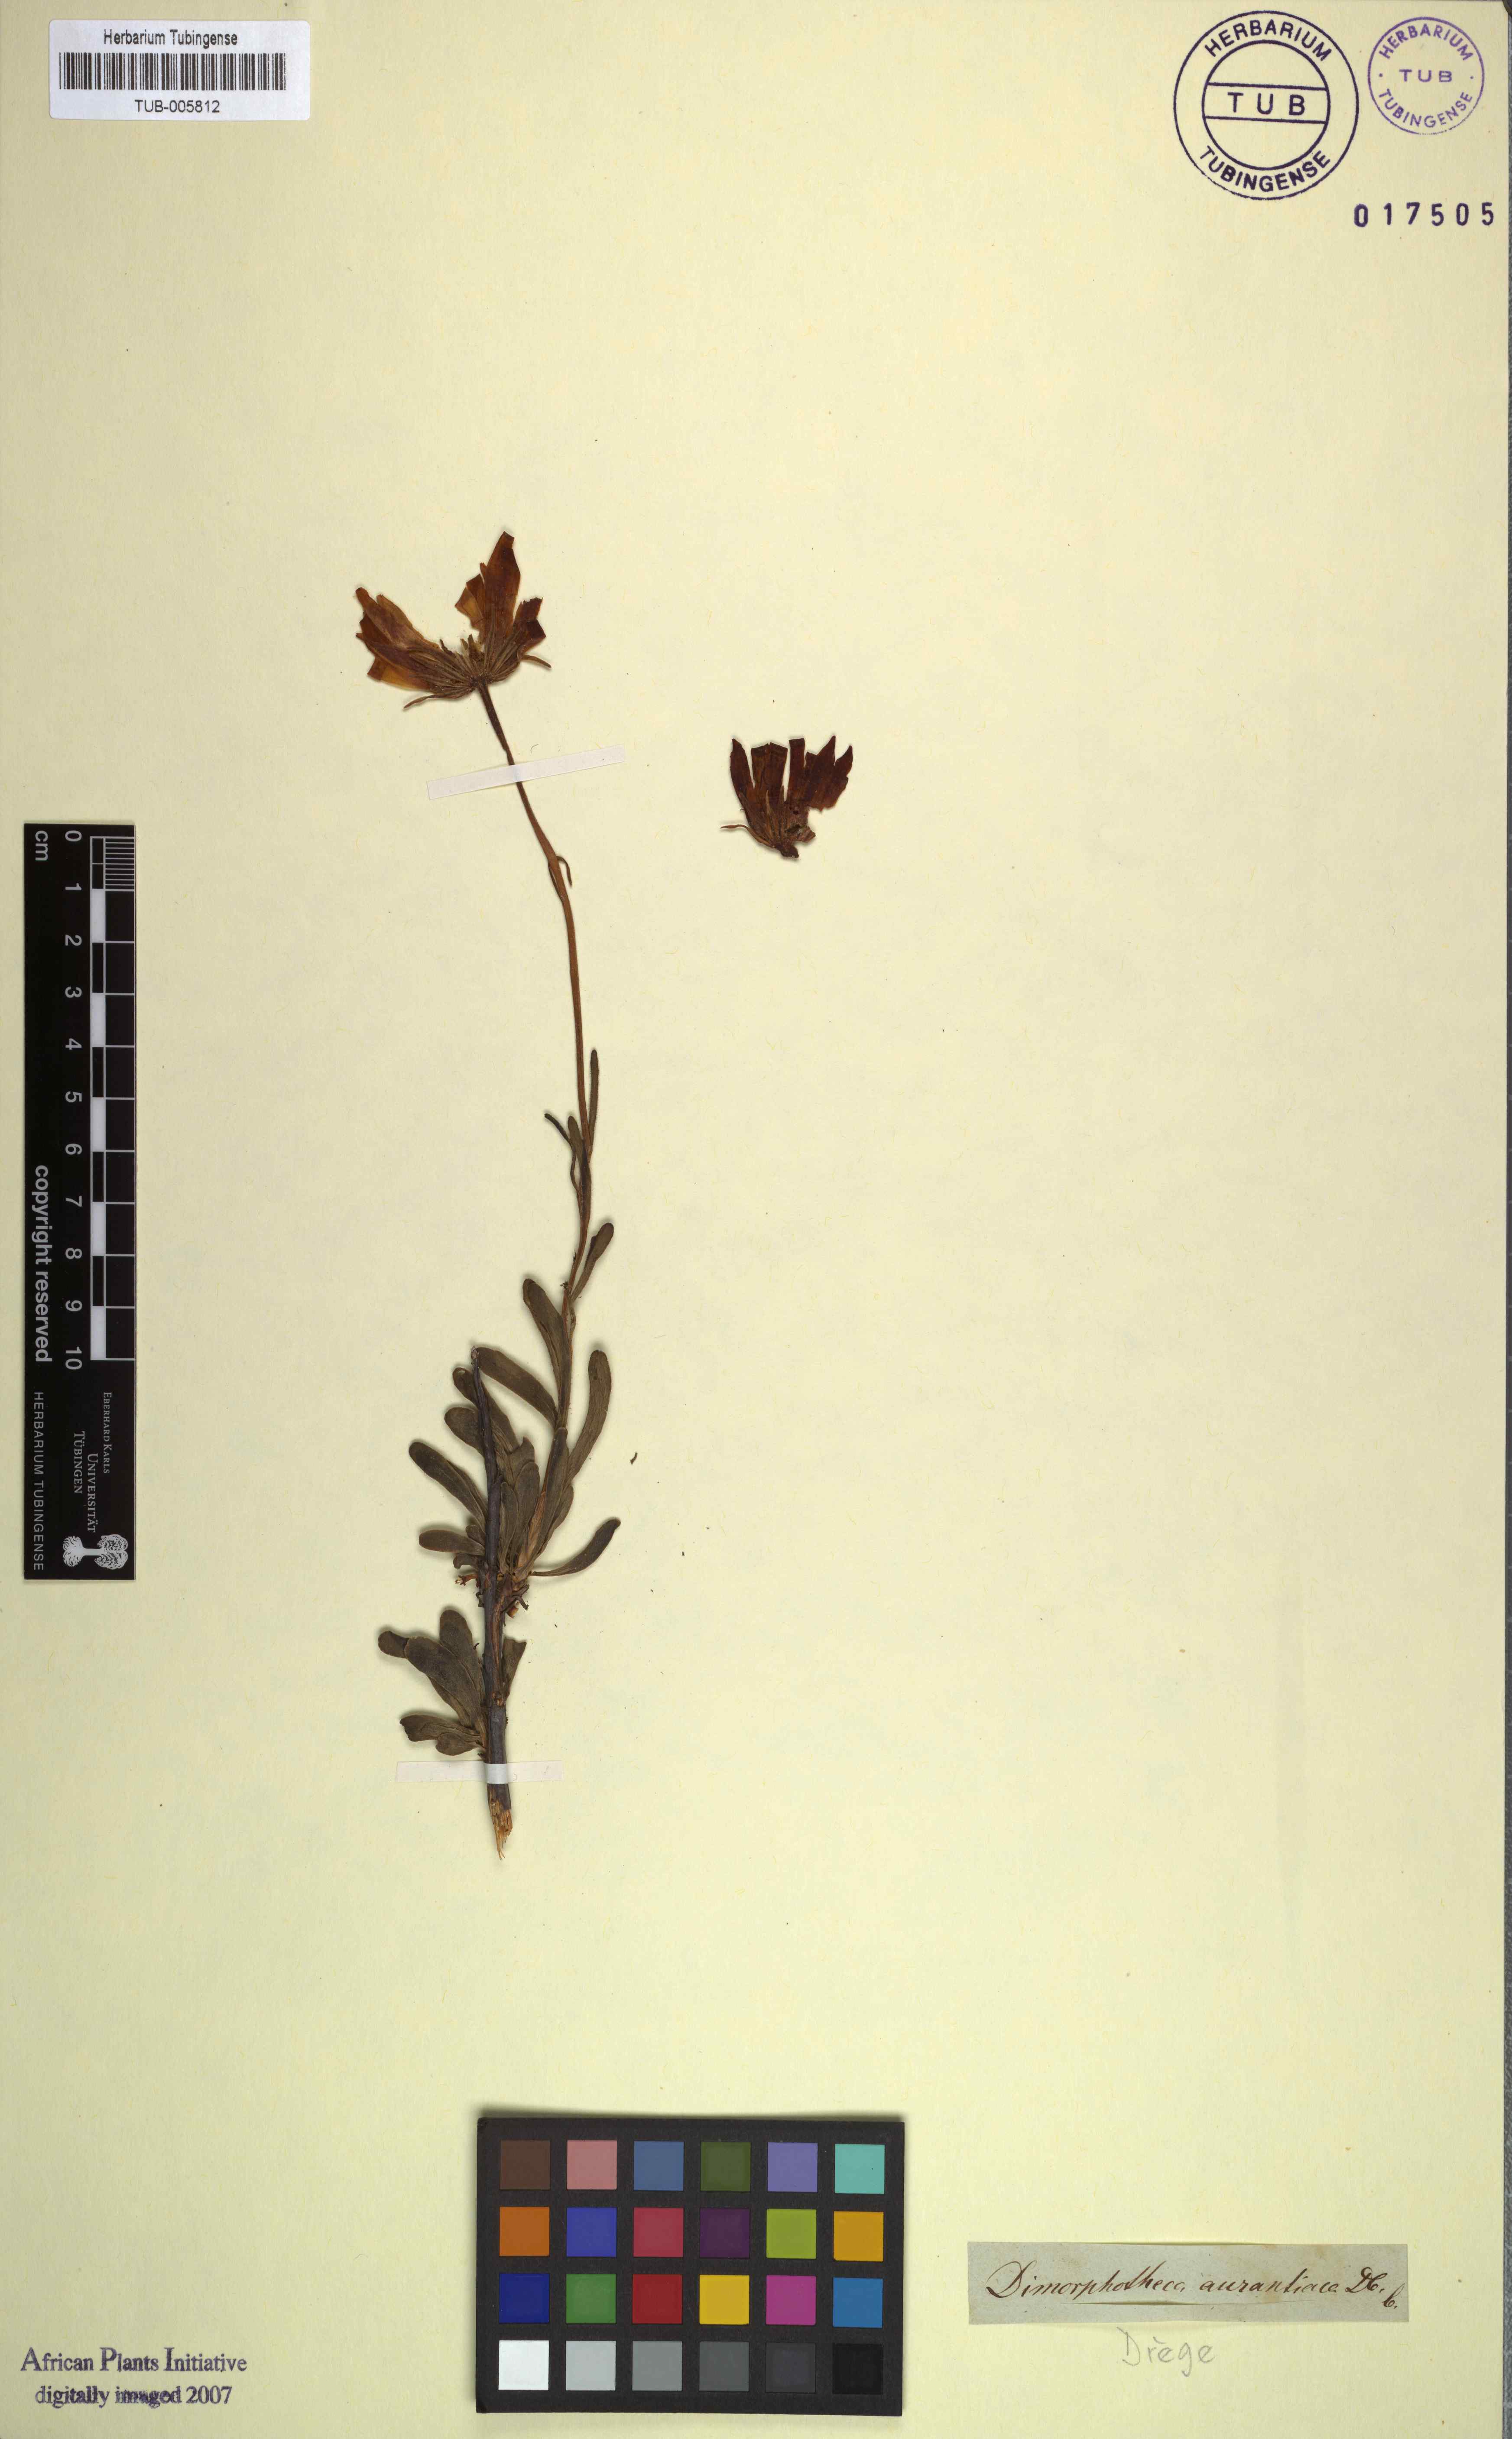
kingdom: Plantae
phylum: Tracheophyta
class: Magnoliopsida
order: Asterales
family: Asteraceae
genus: Dimorphotheca
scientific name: Dimorphotheca tragus
